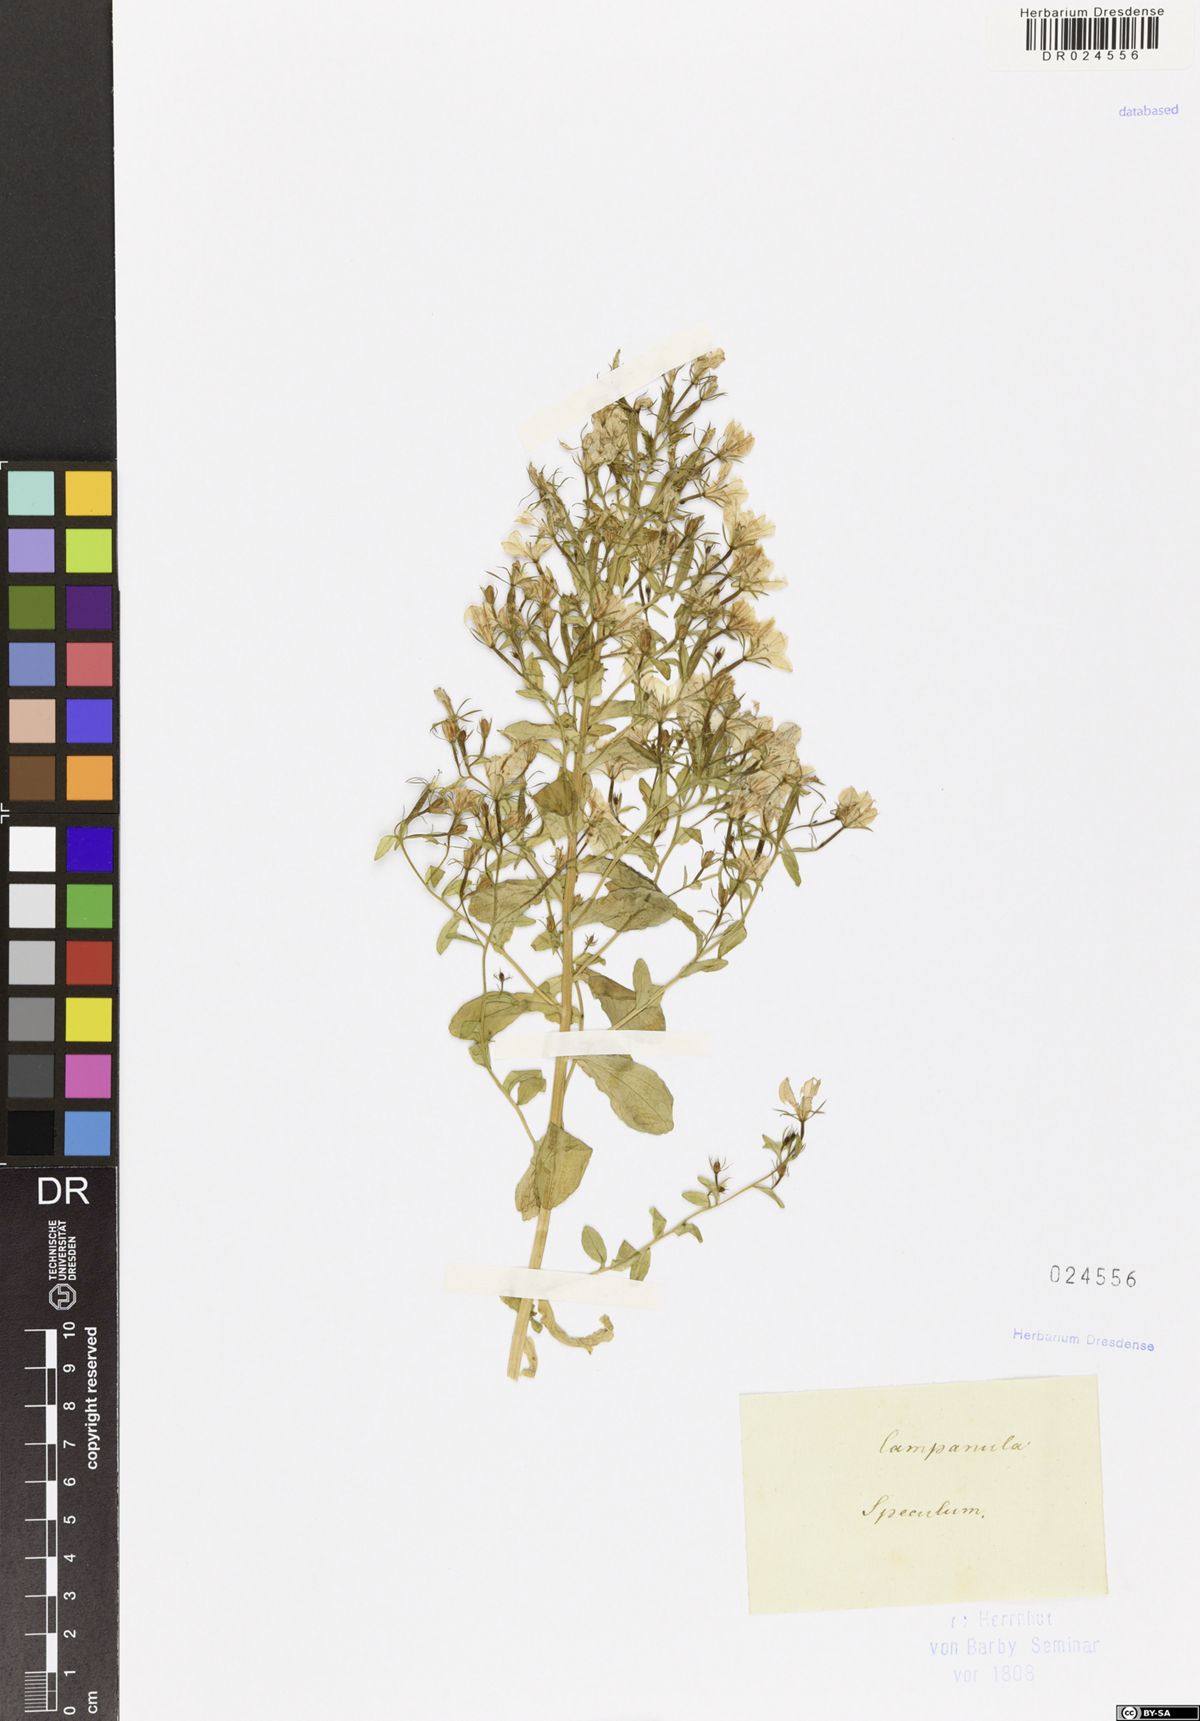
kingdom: Plantae
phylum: Tracheophyta
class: Magnoliopsida
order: Asterales
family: Campanulaceae
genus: Legousia
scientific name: Legousia speculum-veneris
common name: Large venus's-looking-glass
